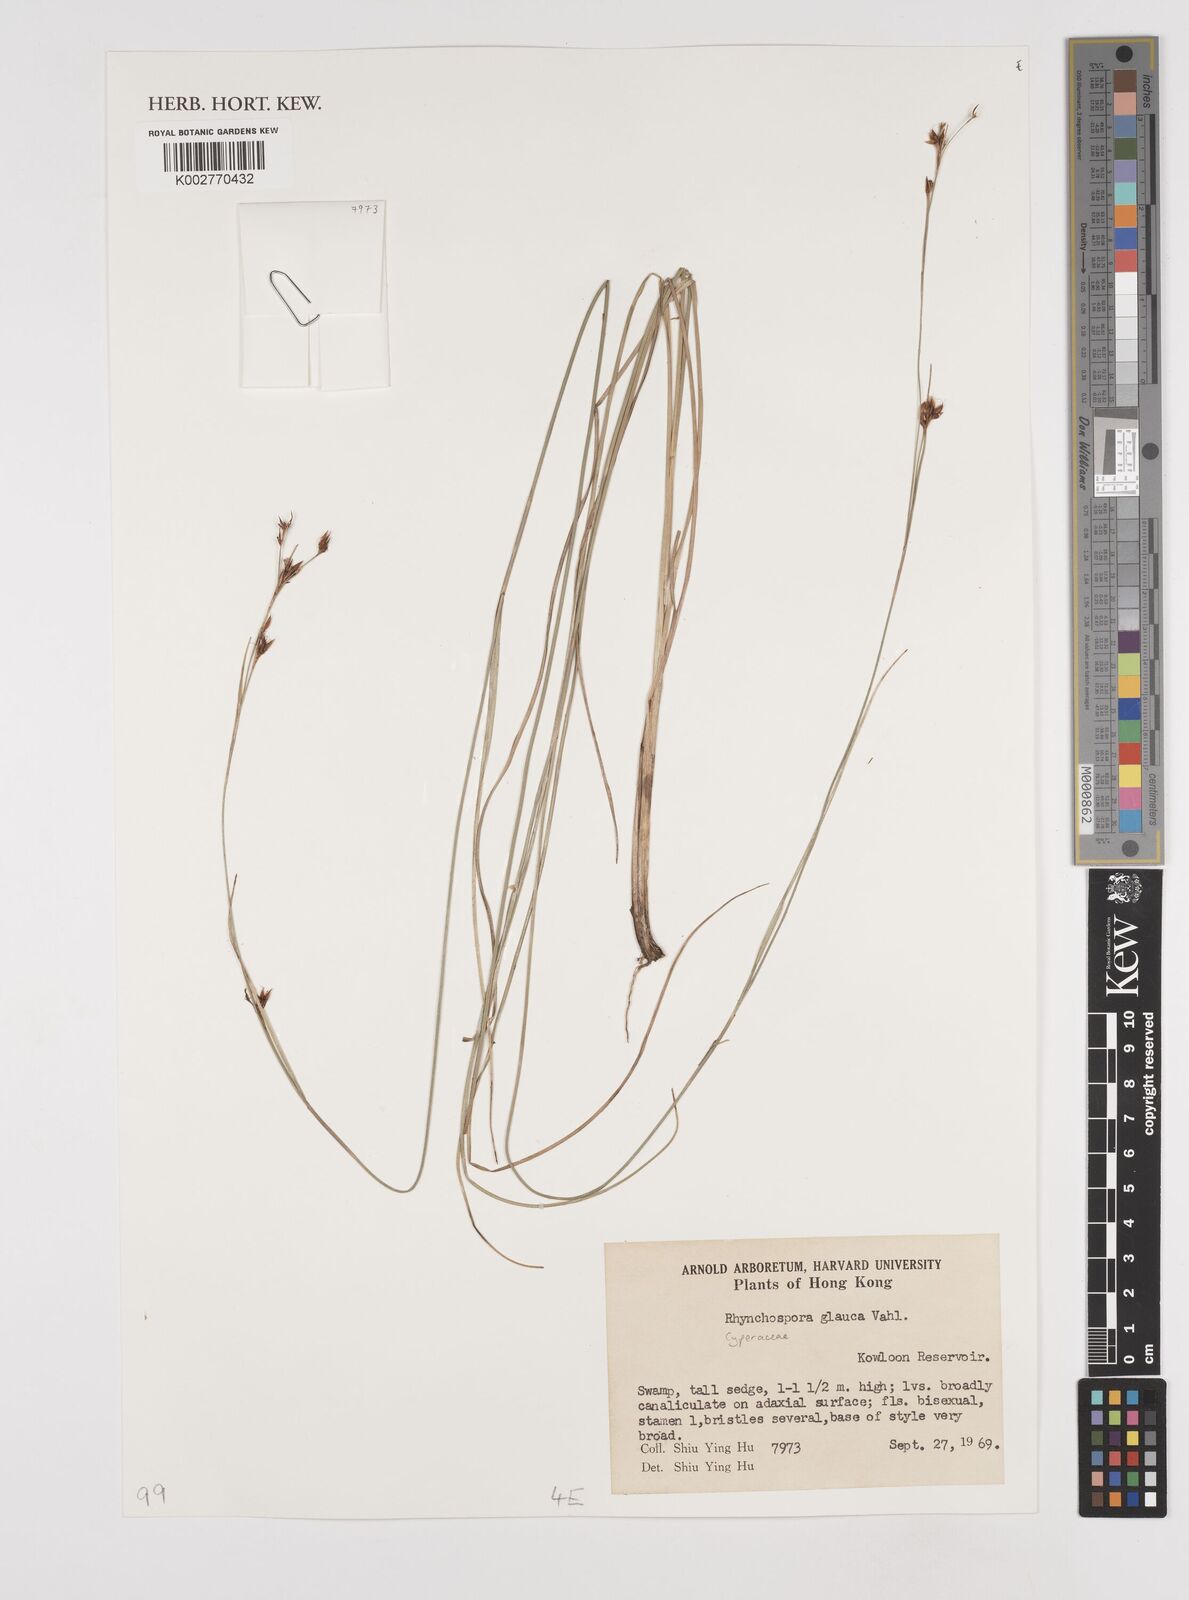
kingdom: Plantae
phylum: Tracheophyta
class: Liliopsida
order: Poales
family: Cyperaceae
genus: Rhynchospora
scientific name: Rhynchospora rugosa
